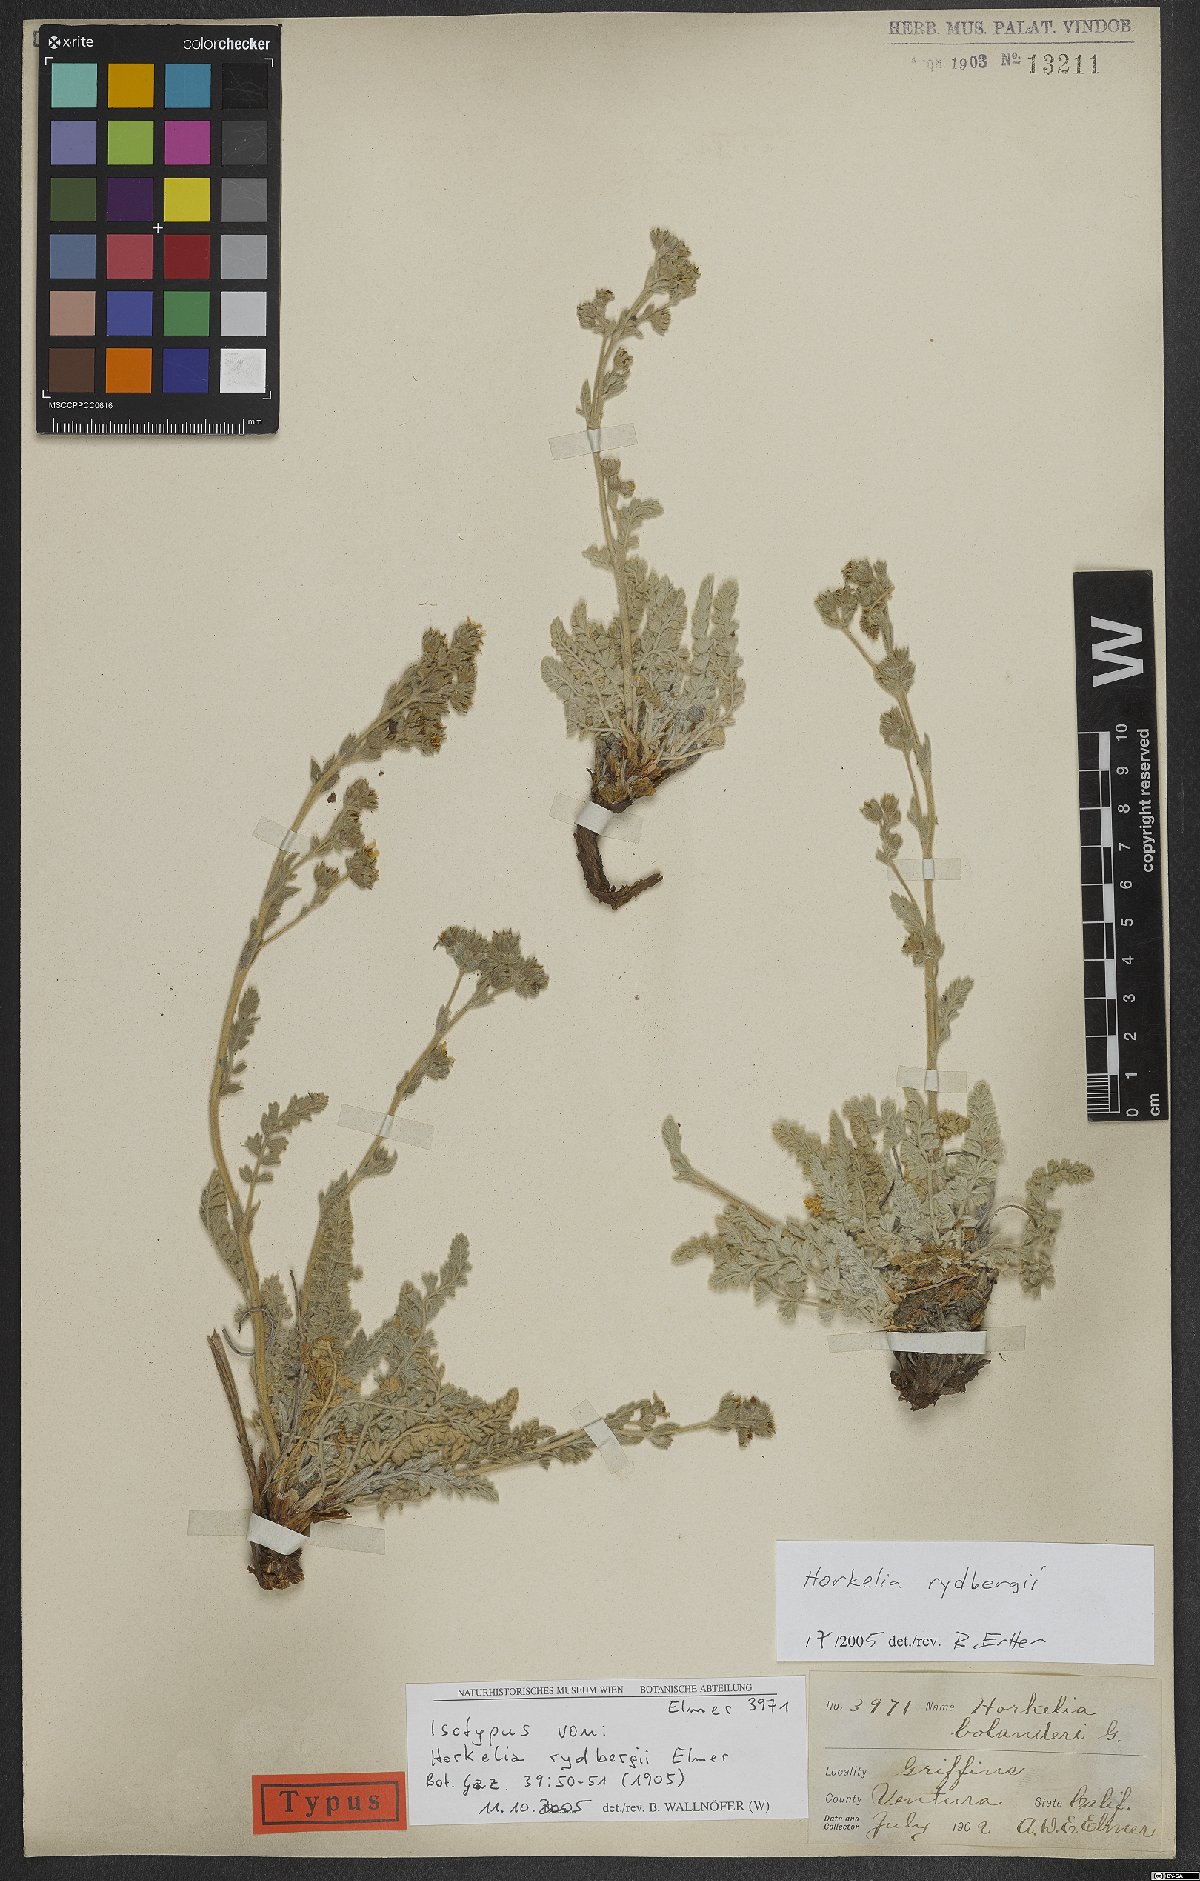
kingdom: Plantae
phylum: Tracheophyta
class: Magnoliopsida
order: Rosales
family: Rosaceae
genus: Potentilla
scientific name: Potentilla rydbergii
